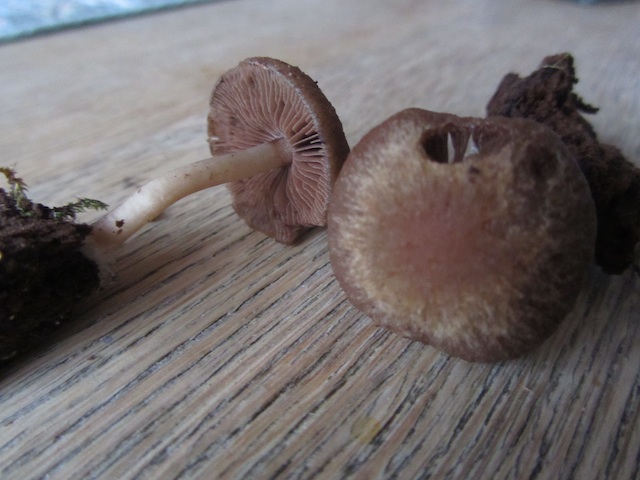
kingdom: Fungi
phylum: Basidiomycota
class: Agaricomycetes
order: Agaricales
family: Psathyrellaceae
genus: Psathyrella
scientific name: Psathyrella piluliformis
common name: lysstokket mørkhat
